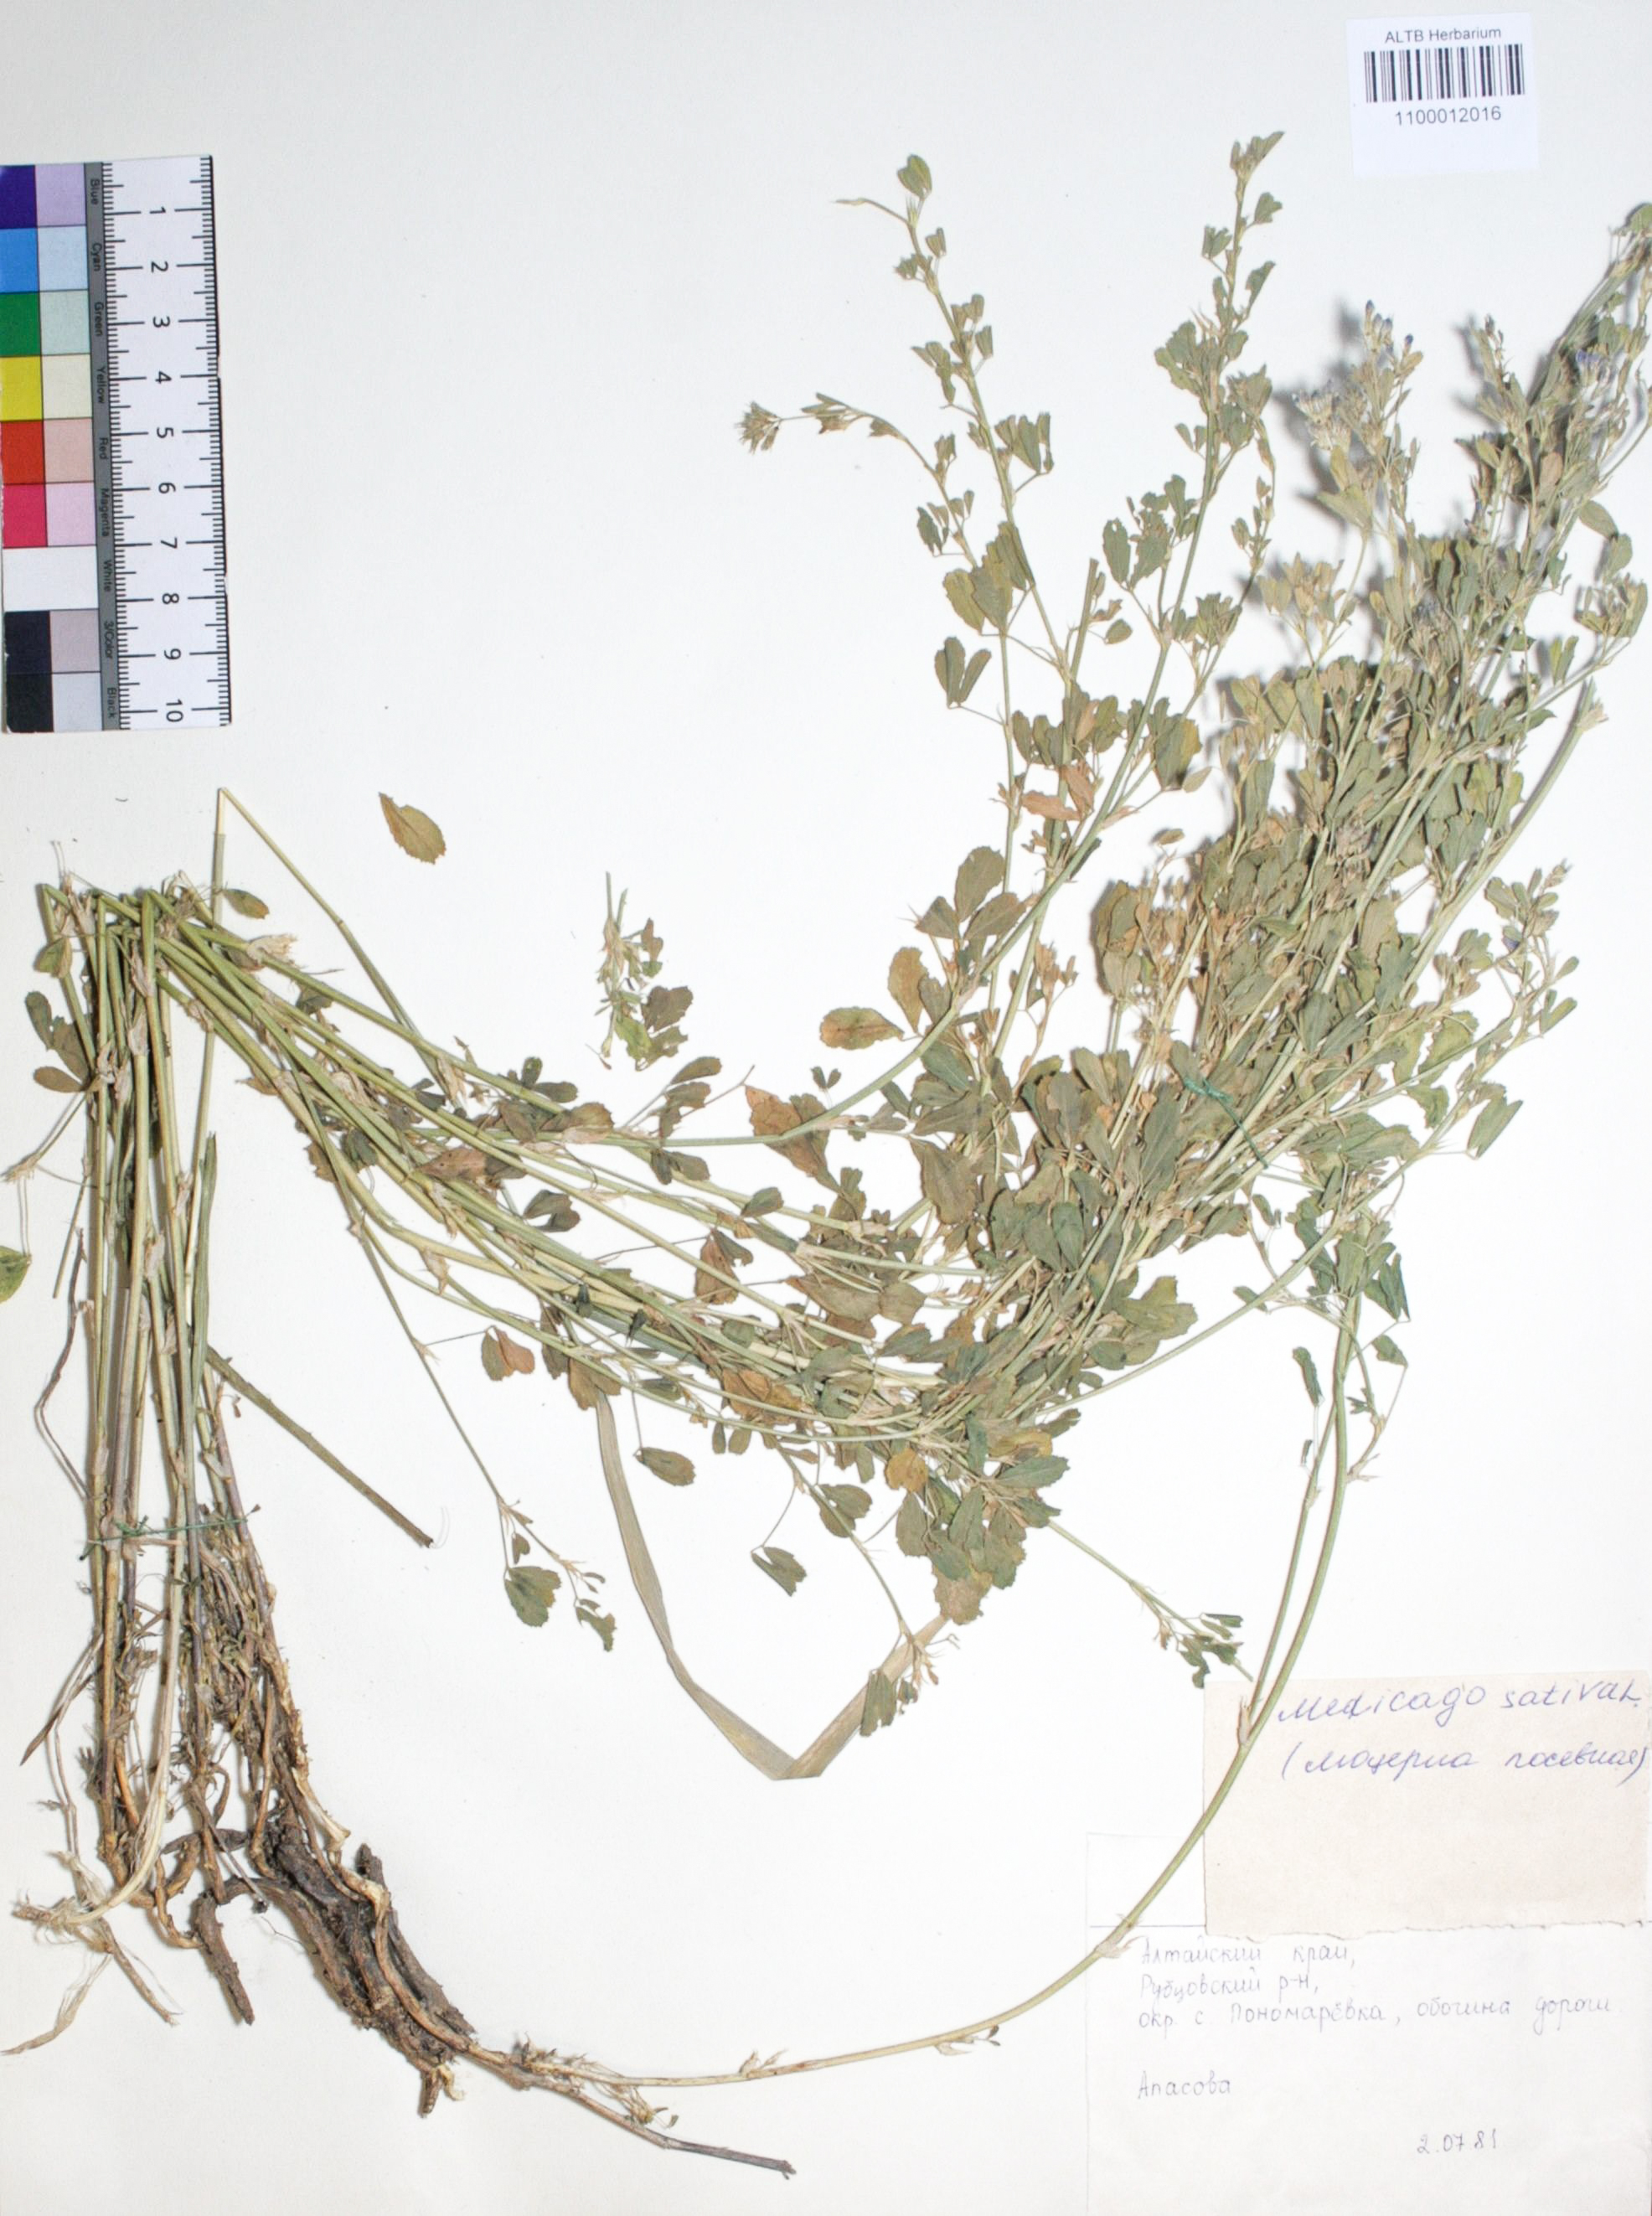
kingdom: Plantae
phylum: Tracheophyta
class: Magnoliopsida
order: Fabales
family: Fabaceae
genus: Medicago
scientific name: Medicago sativa
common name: Alfalfa
